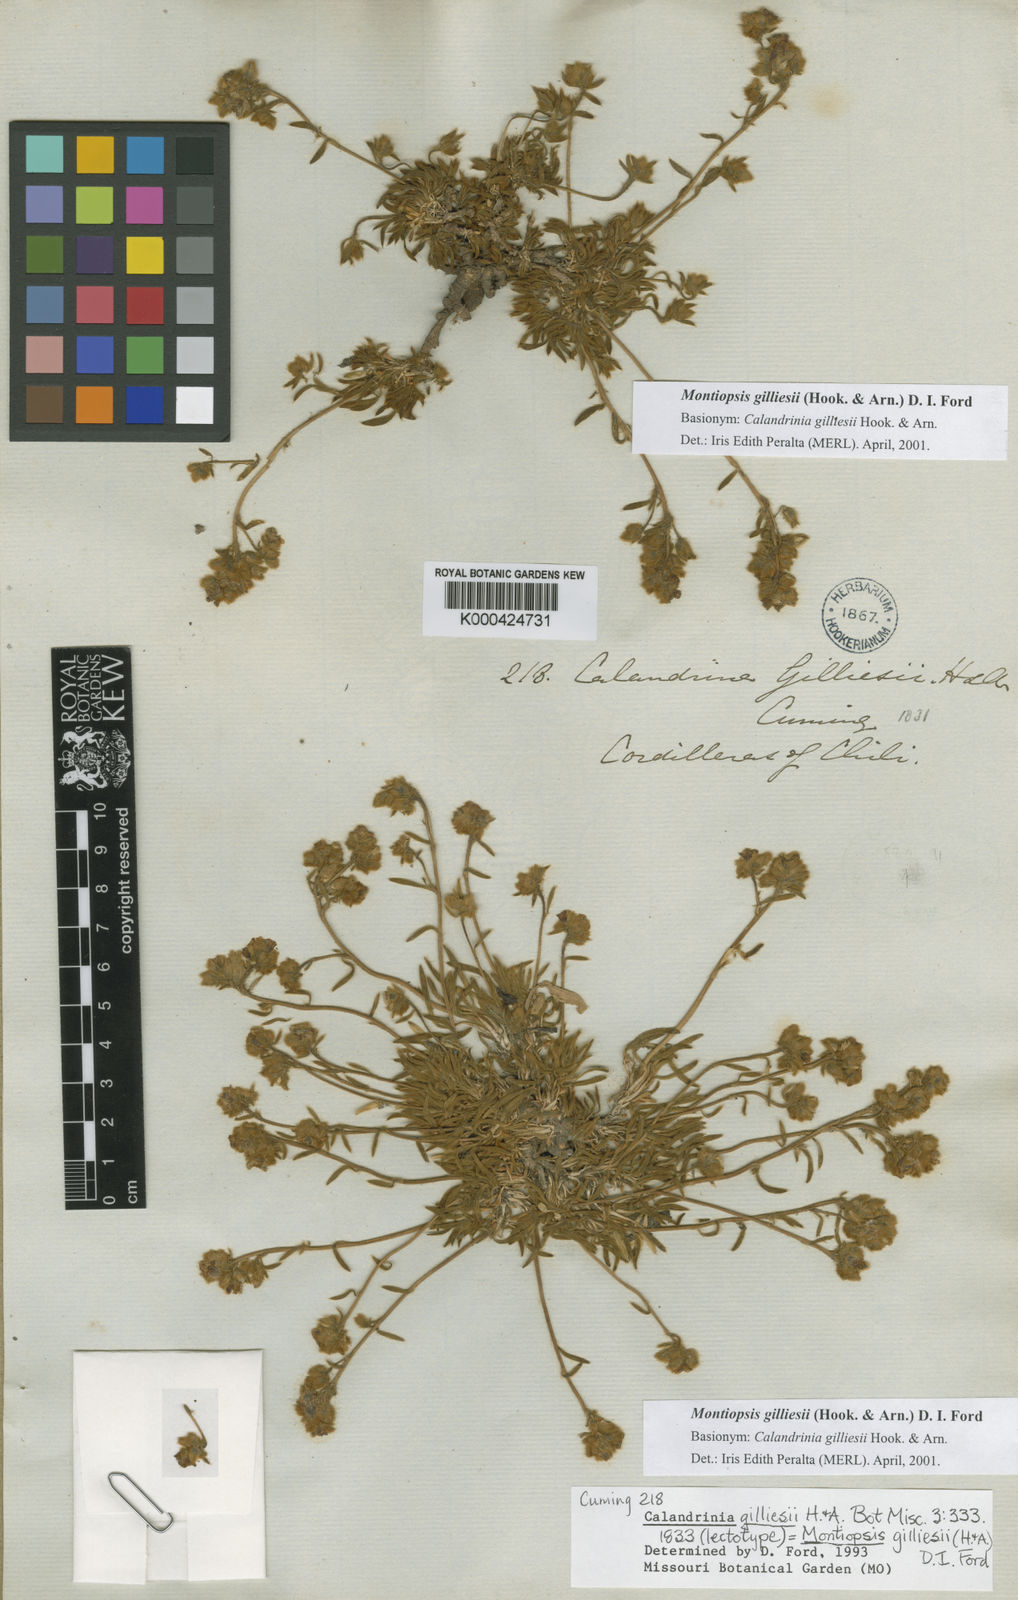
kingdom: Plantae
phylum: Tracheophyta
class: Magnoliopsida
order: Caryophyllales
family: Montiaceae
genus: Montiopsis
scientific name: Montiopsis gilliesii
